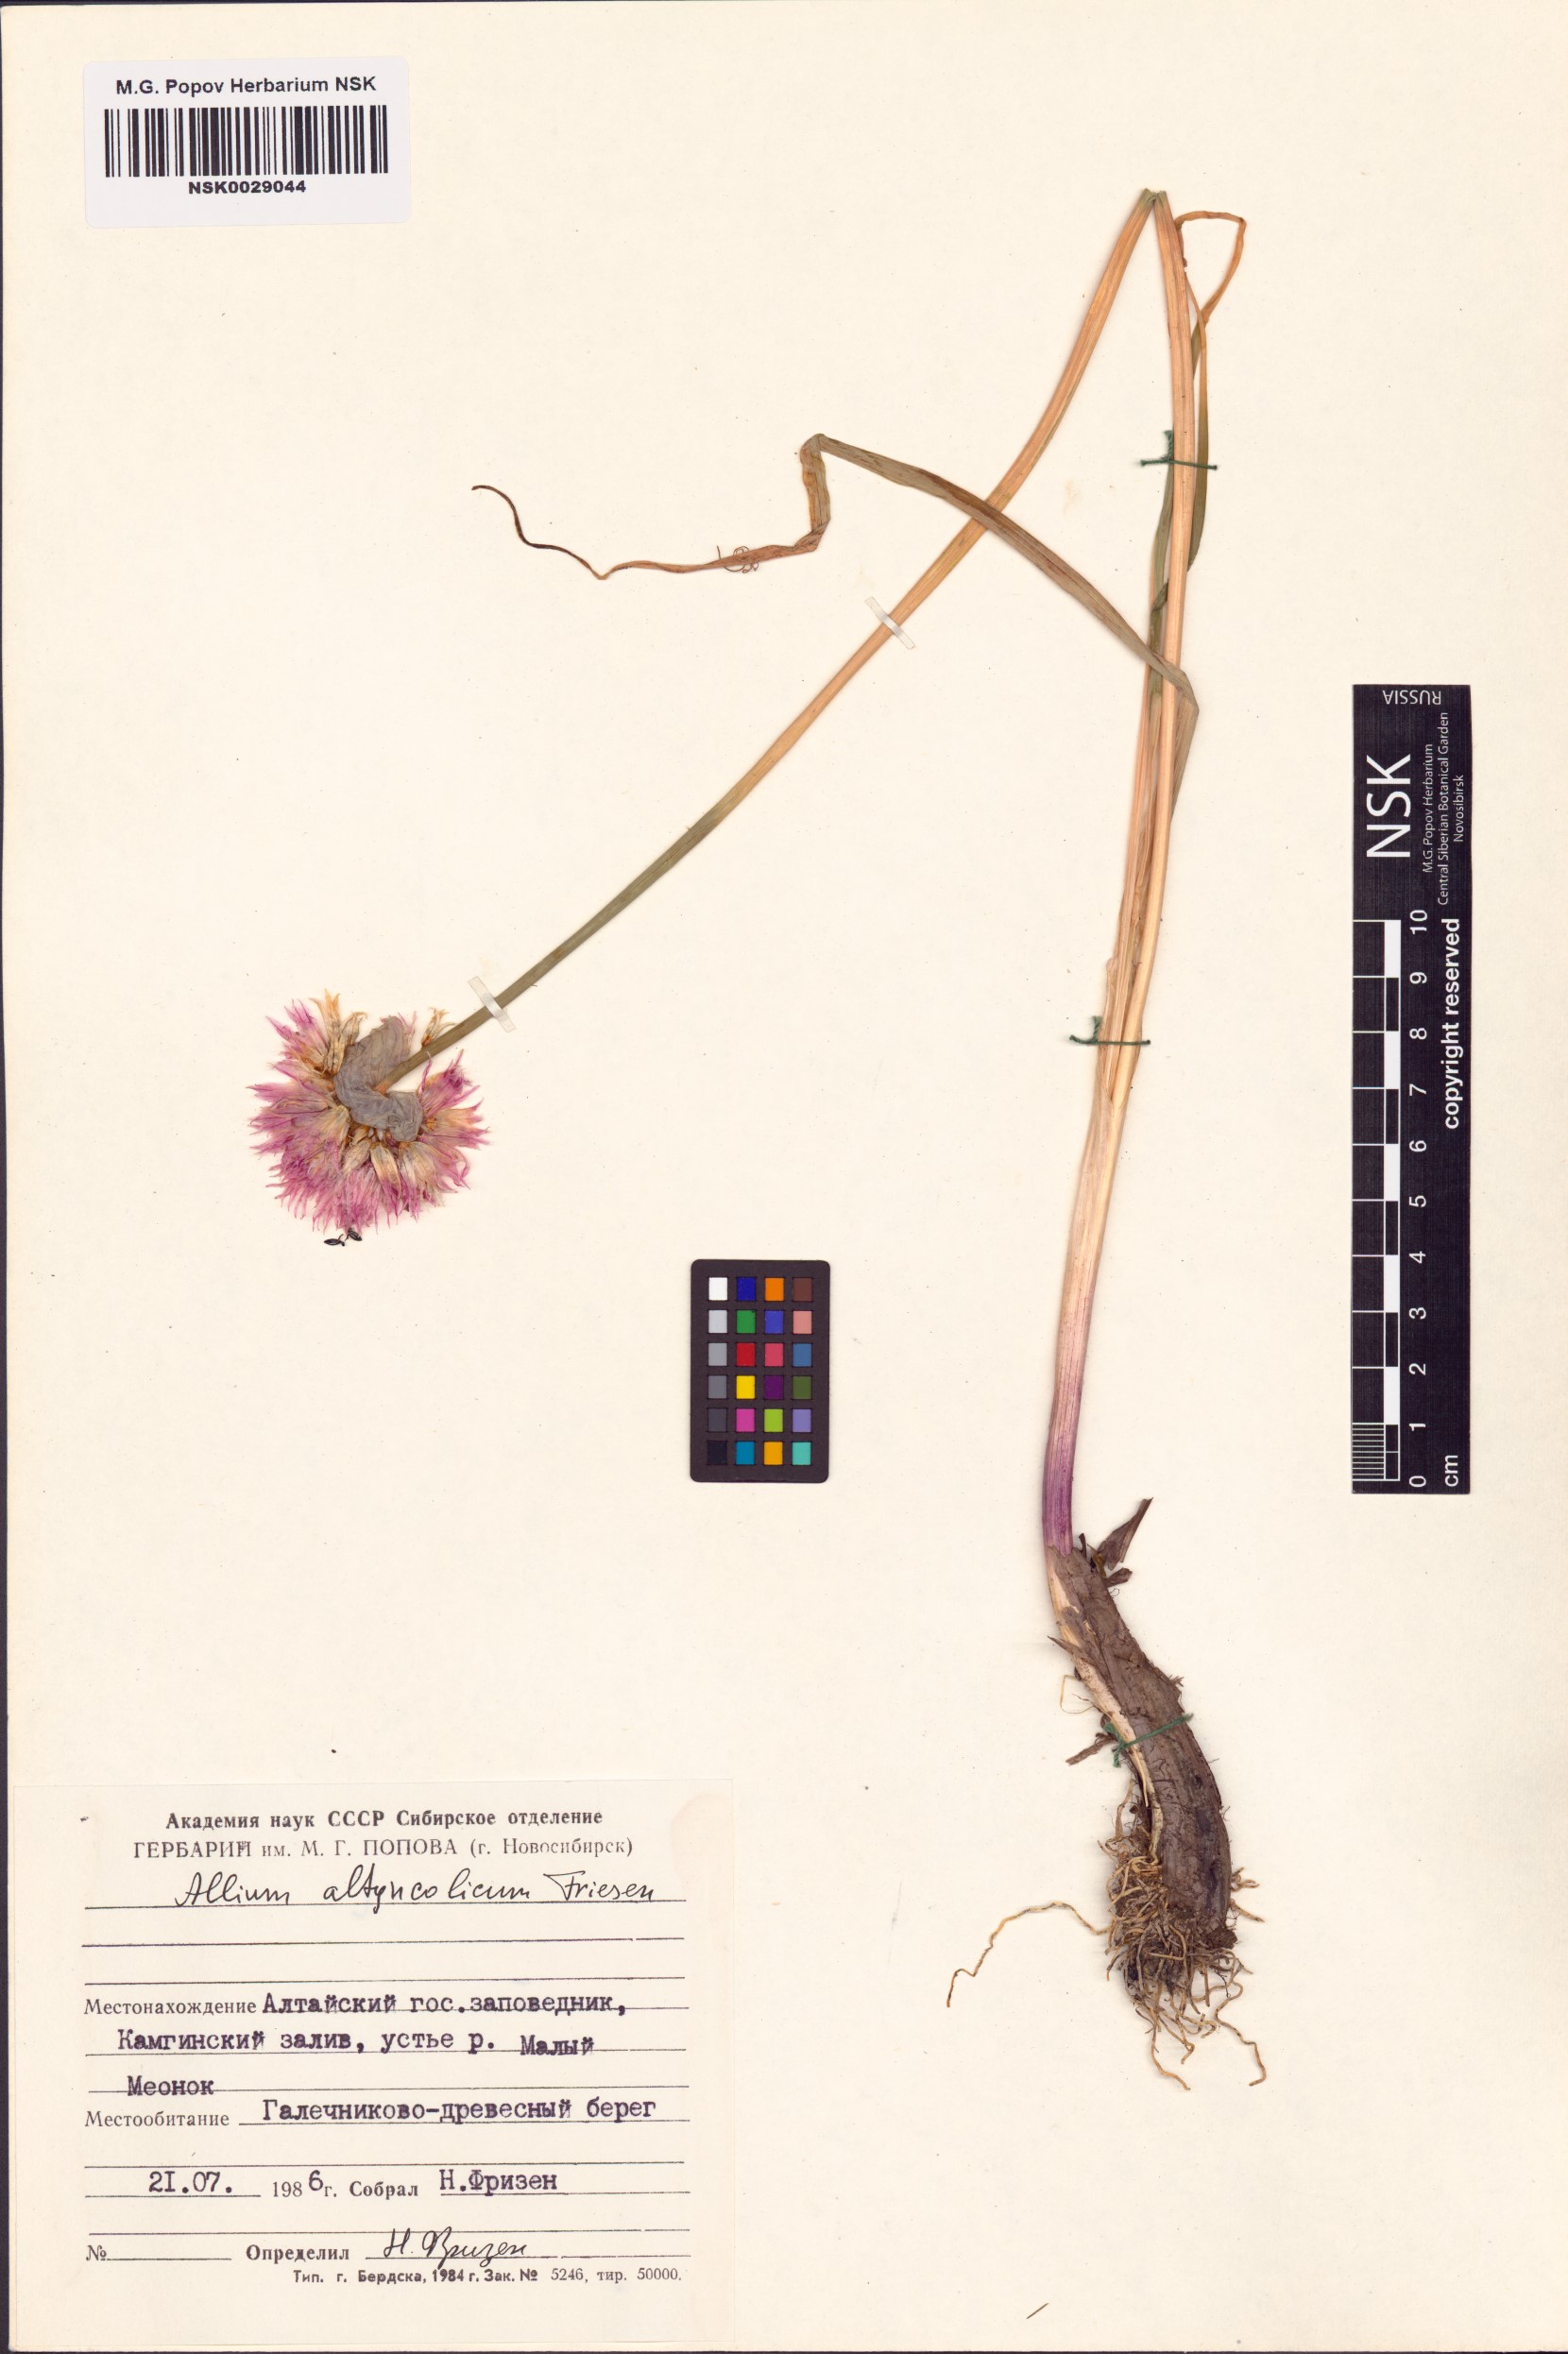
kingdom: Plantae
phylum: Tracheophyta
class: Liliopsida
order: Asparagales
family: Amaryllidaceae
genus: Allium
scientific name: Allium altyncolicum
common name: Altynkol chive
